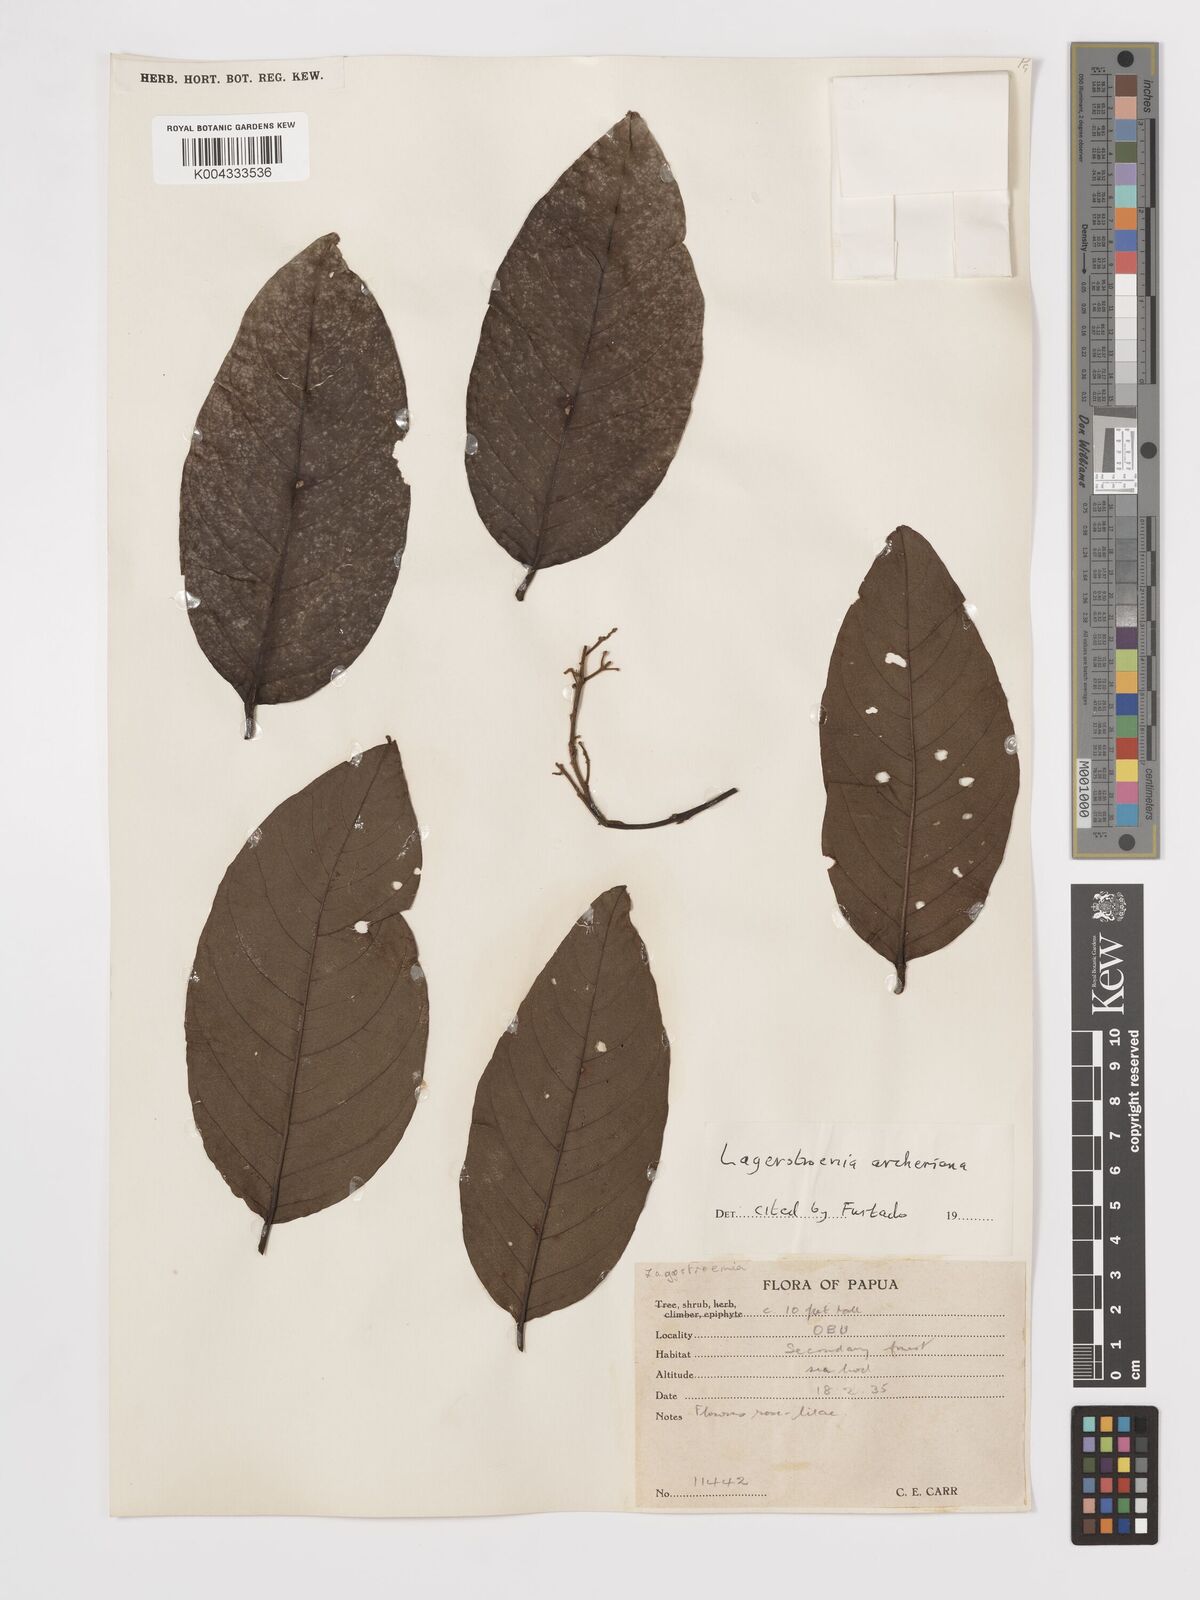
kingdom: Plantae
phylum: Tracheophyta
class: Magnoliopsida
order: Myrtales
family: Lythraceae
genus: Lagerstroemia
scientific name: Lagerstroemia engleriana
